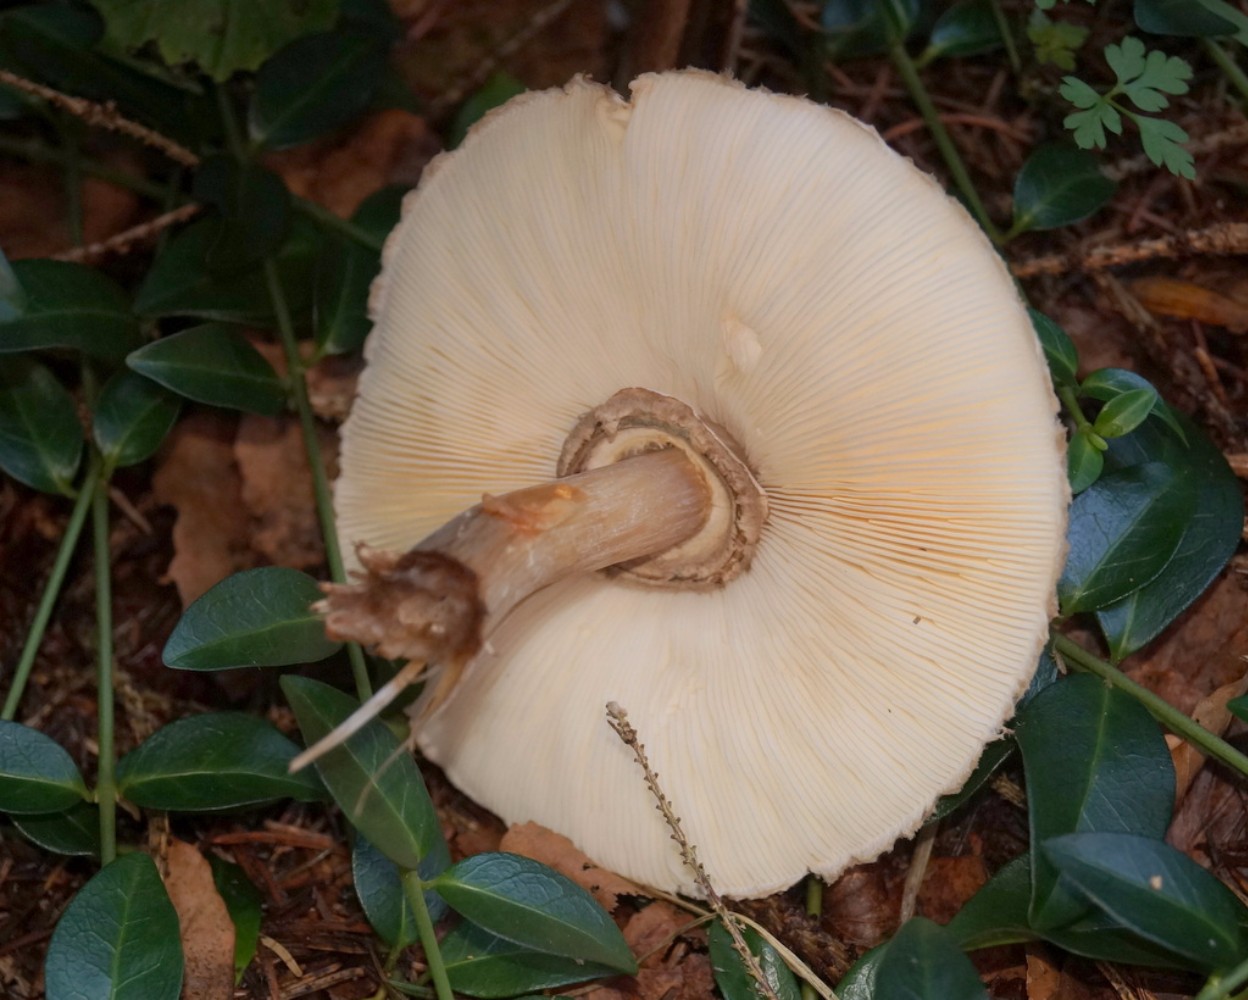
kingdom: Fungi
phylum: Basidiomycota
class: Agaricomycetes
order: Agaricales
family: Agaricaceae
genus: Chlorophyllum
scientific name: Chlorophyllum olivieri
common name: almindelig rabarberhat
